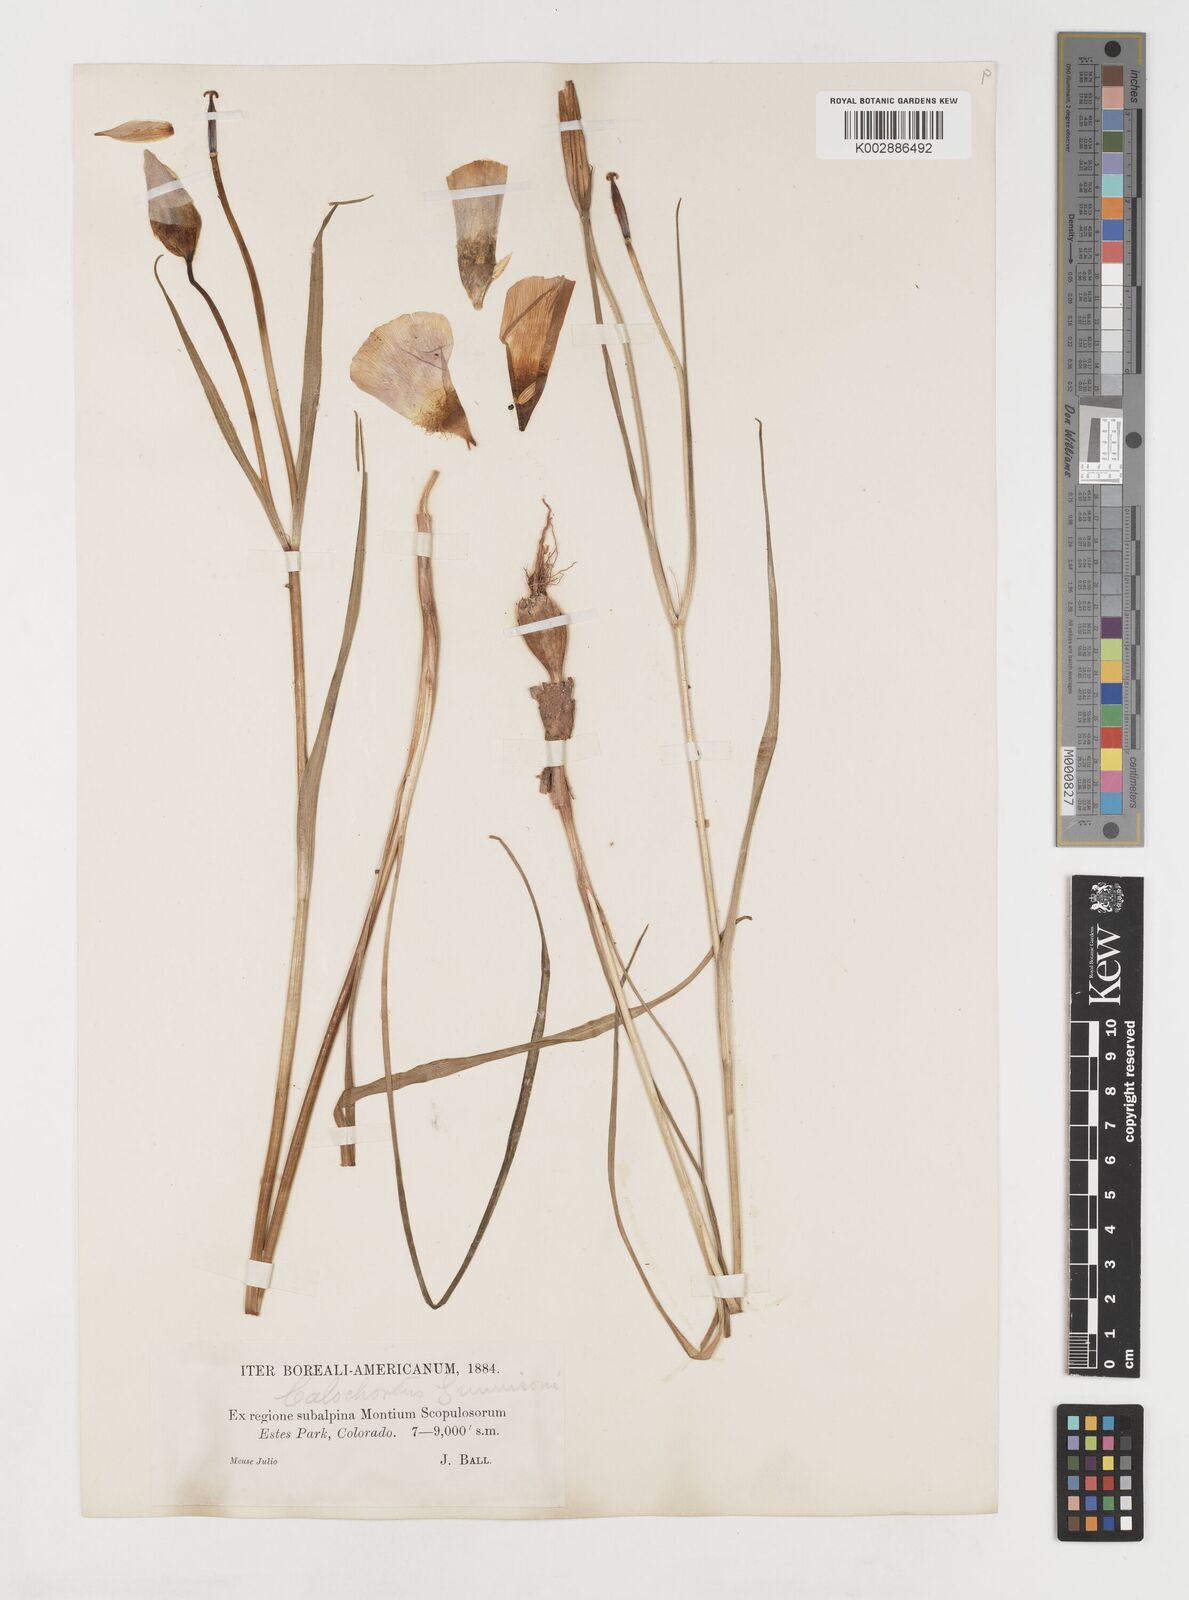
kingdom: Plantae
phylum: Tracheophyta
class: Liliopsida
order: Liliales
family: Liliaceae
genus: Calochortus
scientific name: Calochortus gunnisonii
